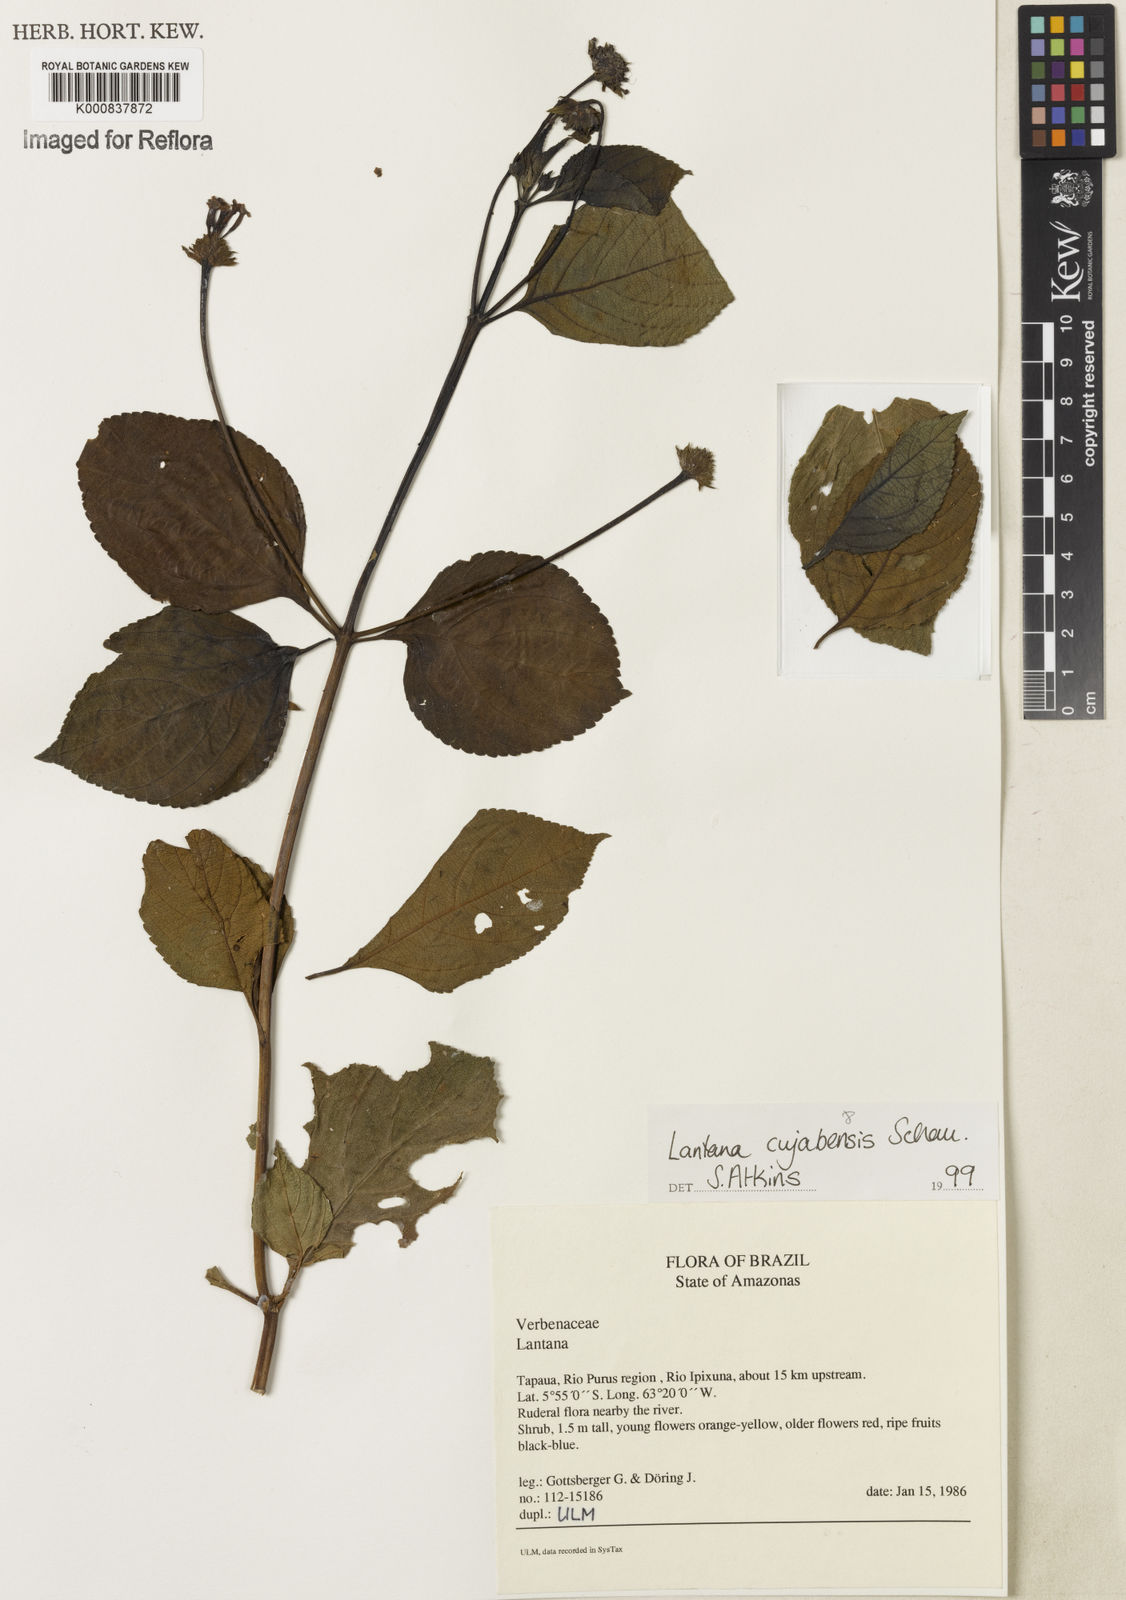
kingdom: Plantae
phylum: Tracheophyta
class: Magnoliopsida
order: Lamiales
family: Verbenaceae
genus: Lantana
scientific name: Lantana cujabensis
